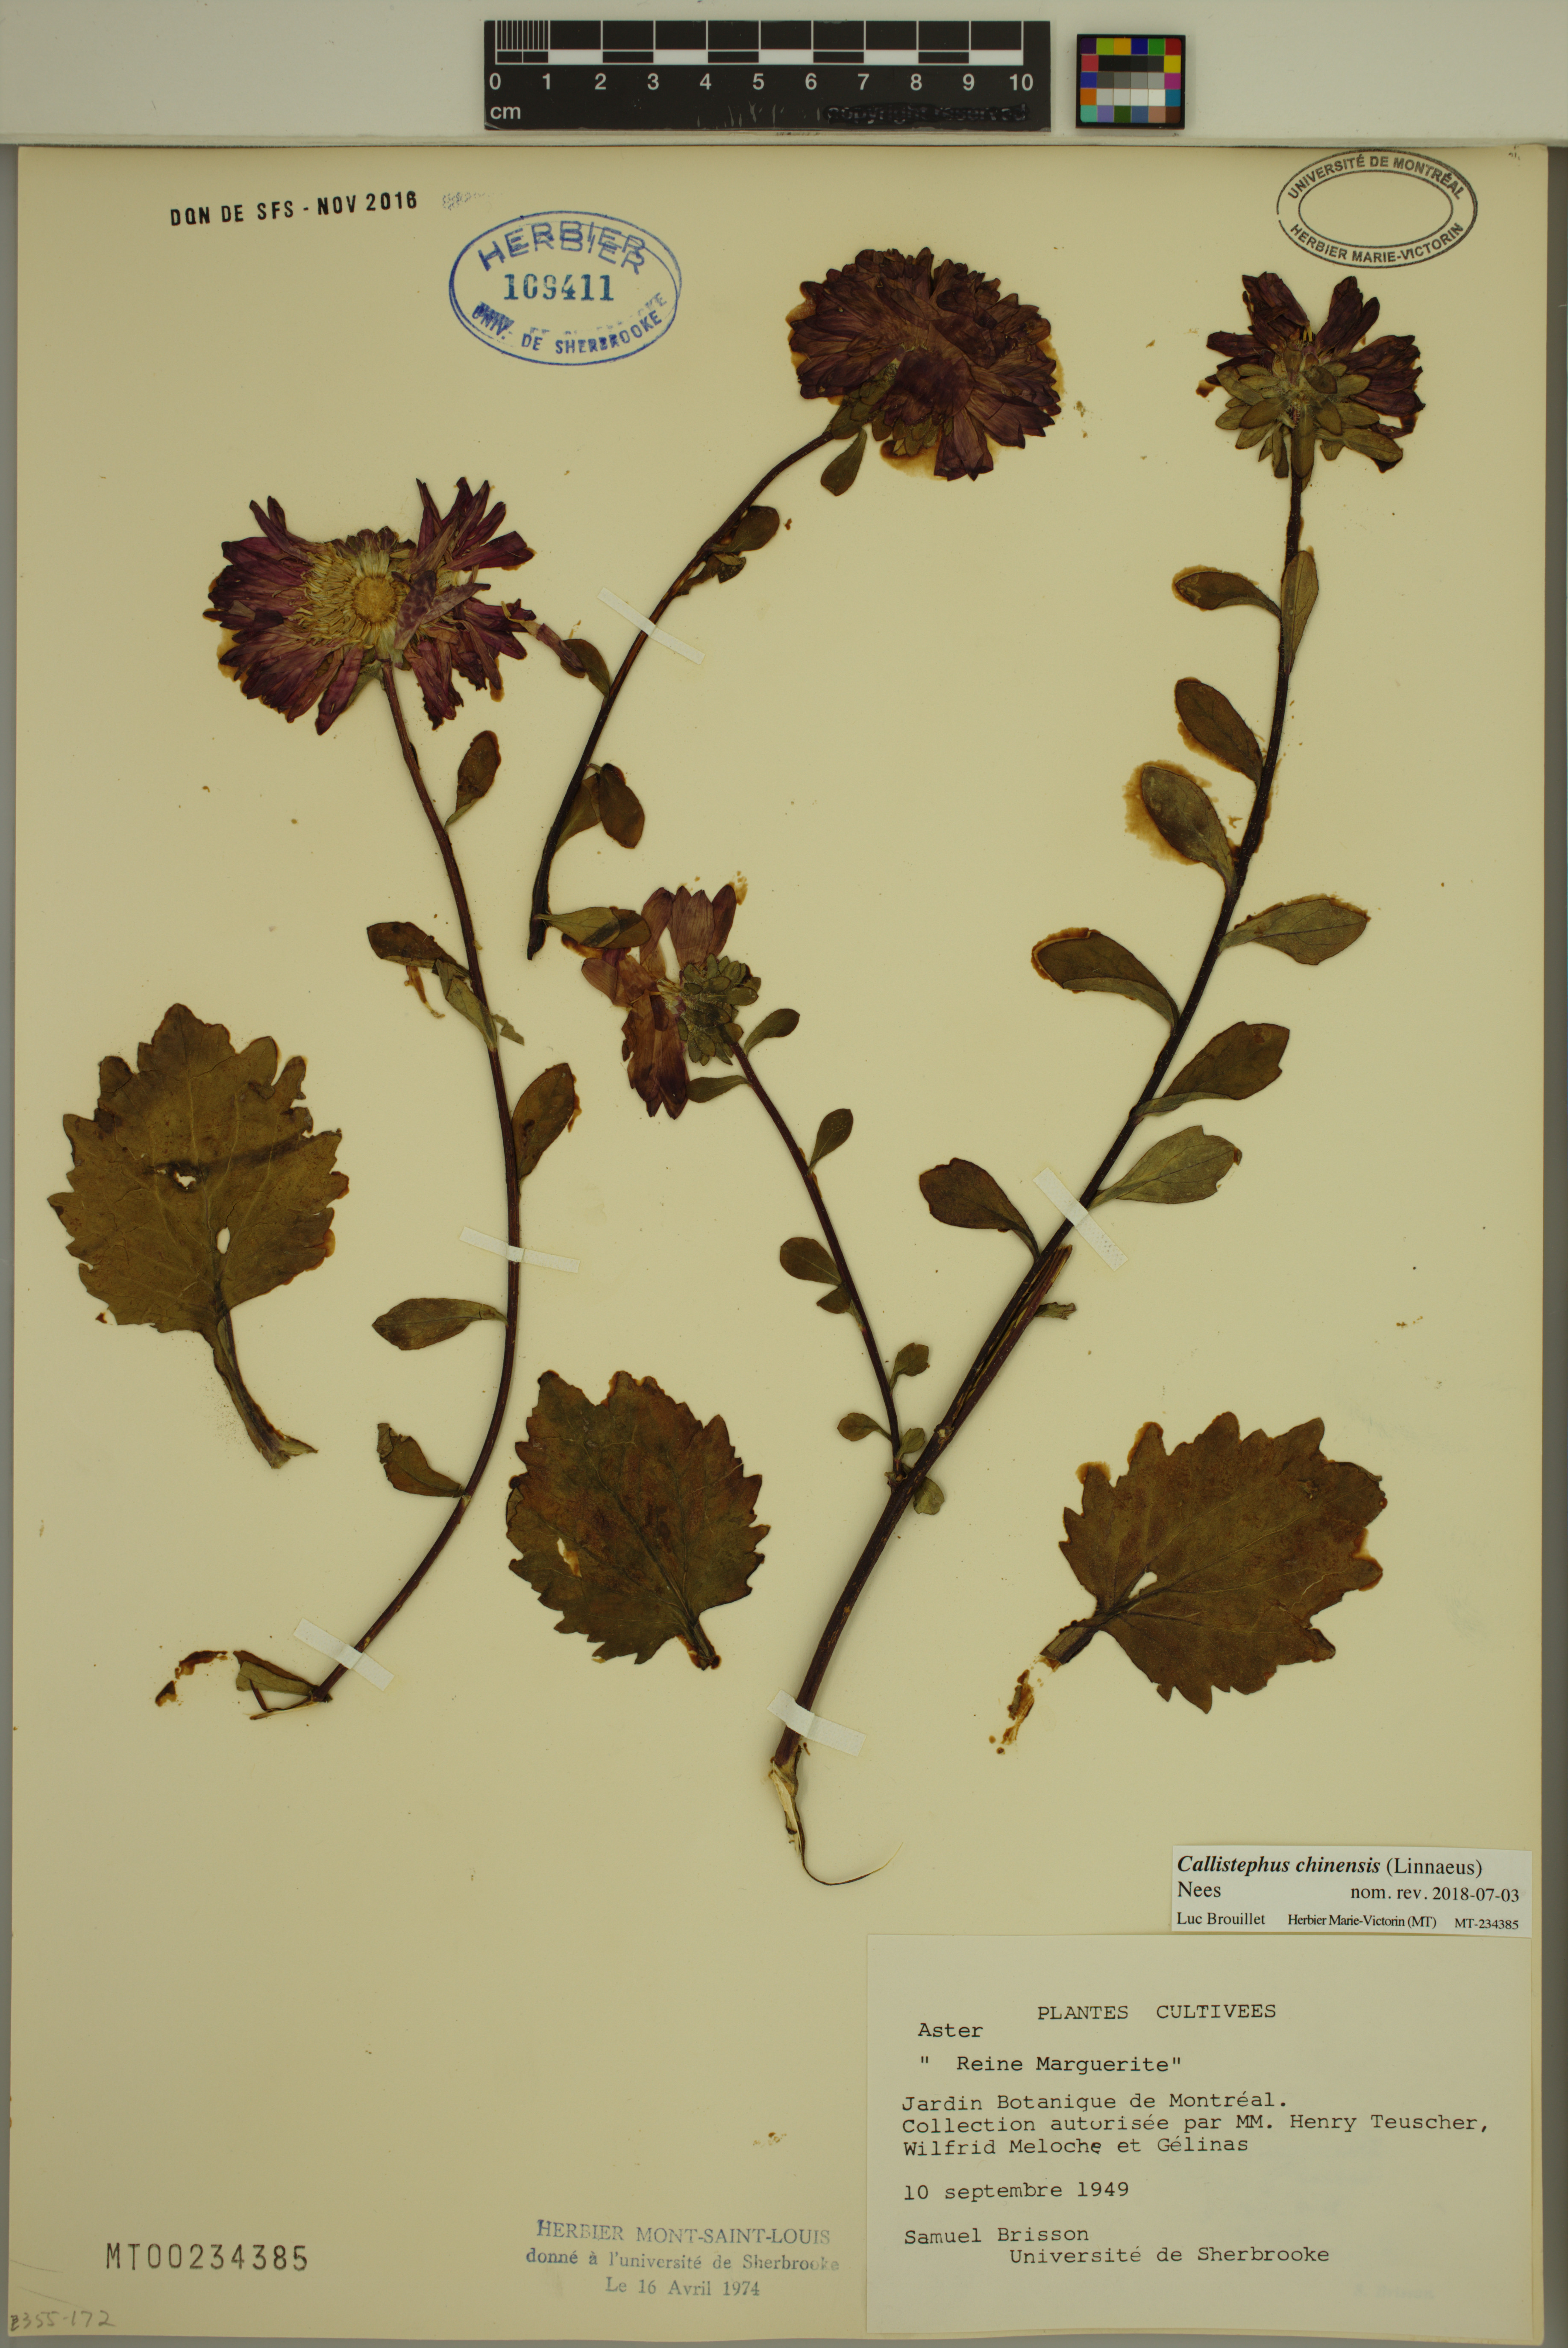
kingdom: Plantae
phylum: Tracheophyta
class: Magnoliopsida
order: Asterales
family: Asteraceae
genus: Callistephus
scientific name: Callistephus chinensis
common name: China aster
